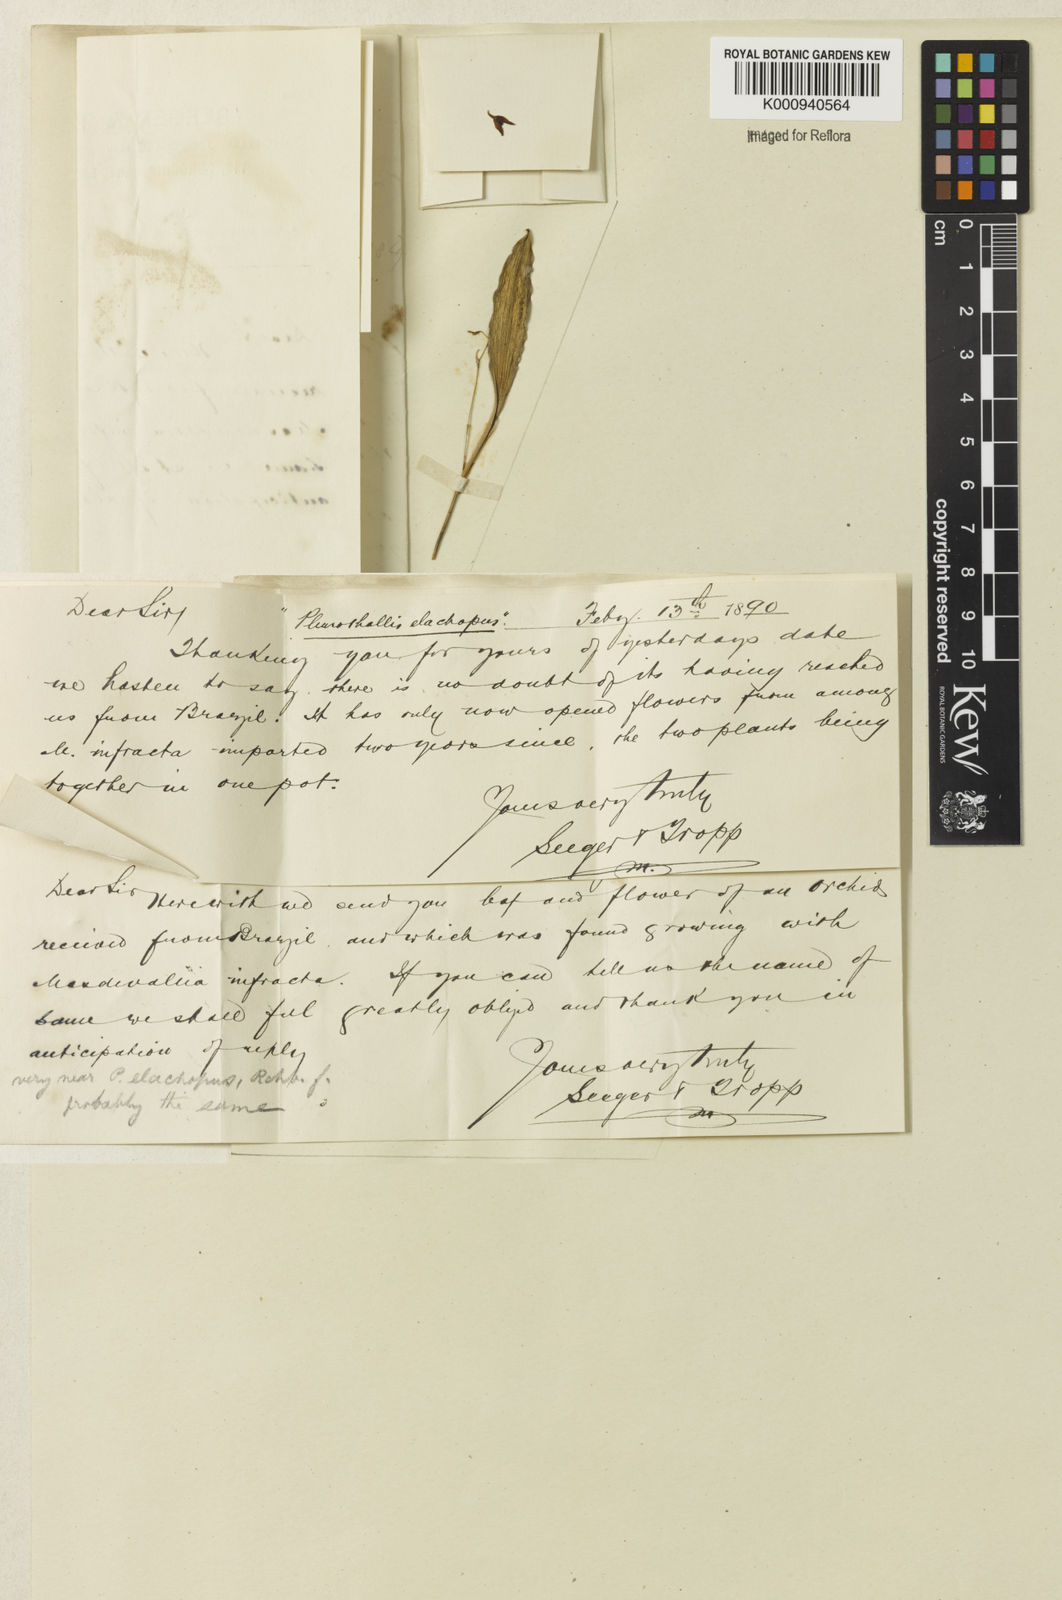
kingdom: Plantae
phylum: Tracheophyta
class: Liliopsida
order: Asparagales
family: Orchidaceae
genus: Stelis
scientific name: Stelis
